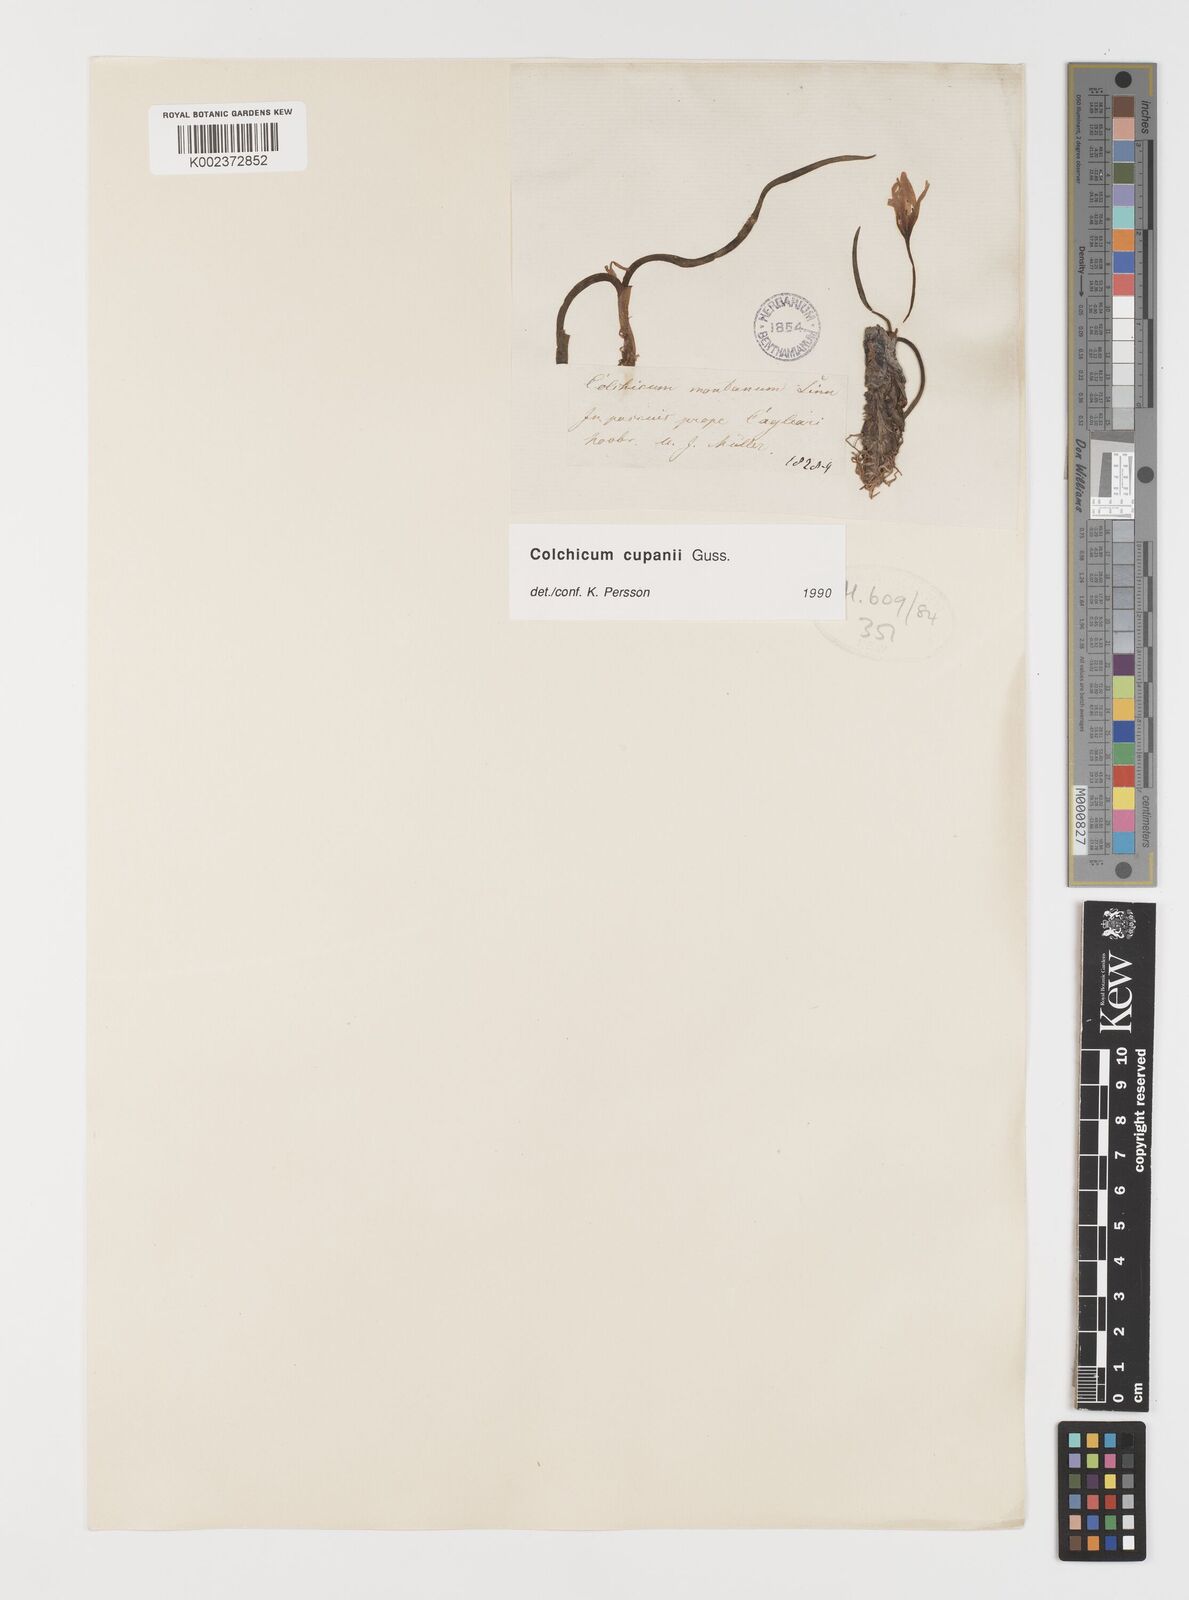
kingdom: Plantae
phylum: Tracheophyta
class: Liliopsida
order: Liliales
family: Colchicaceae
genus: Colchicum
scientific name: Colchicum cupanii
